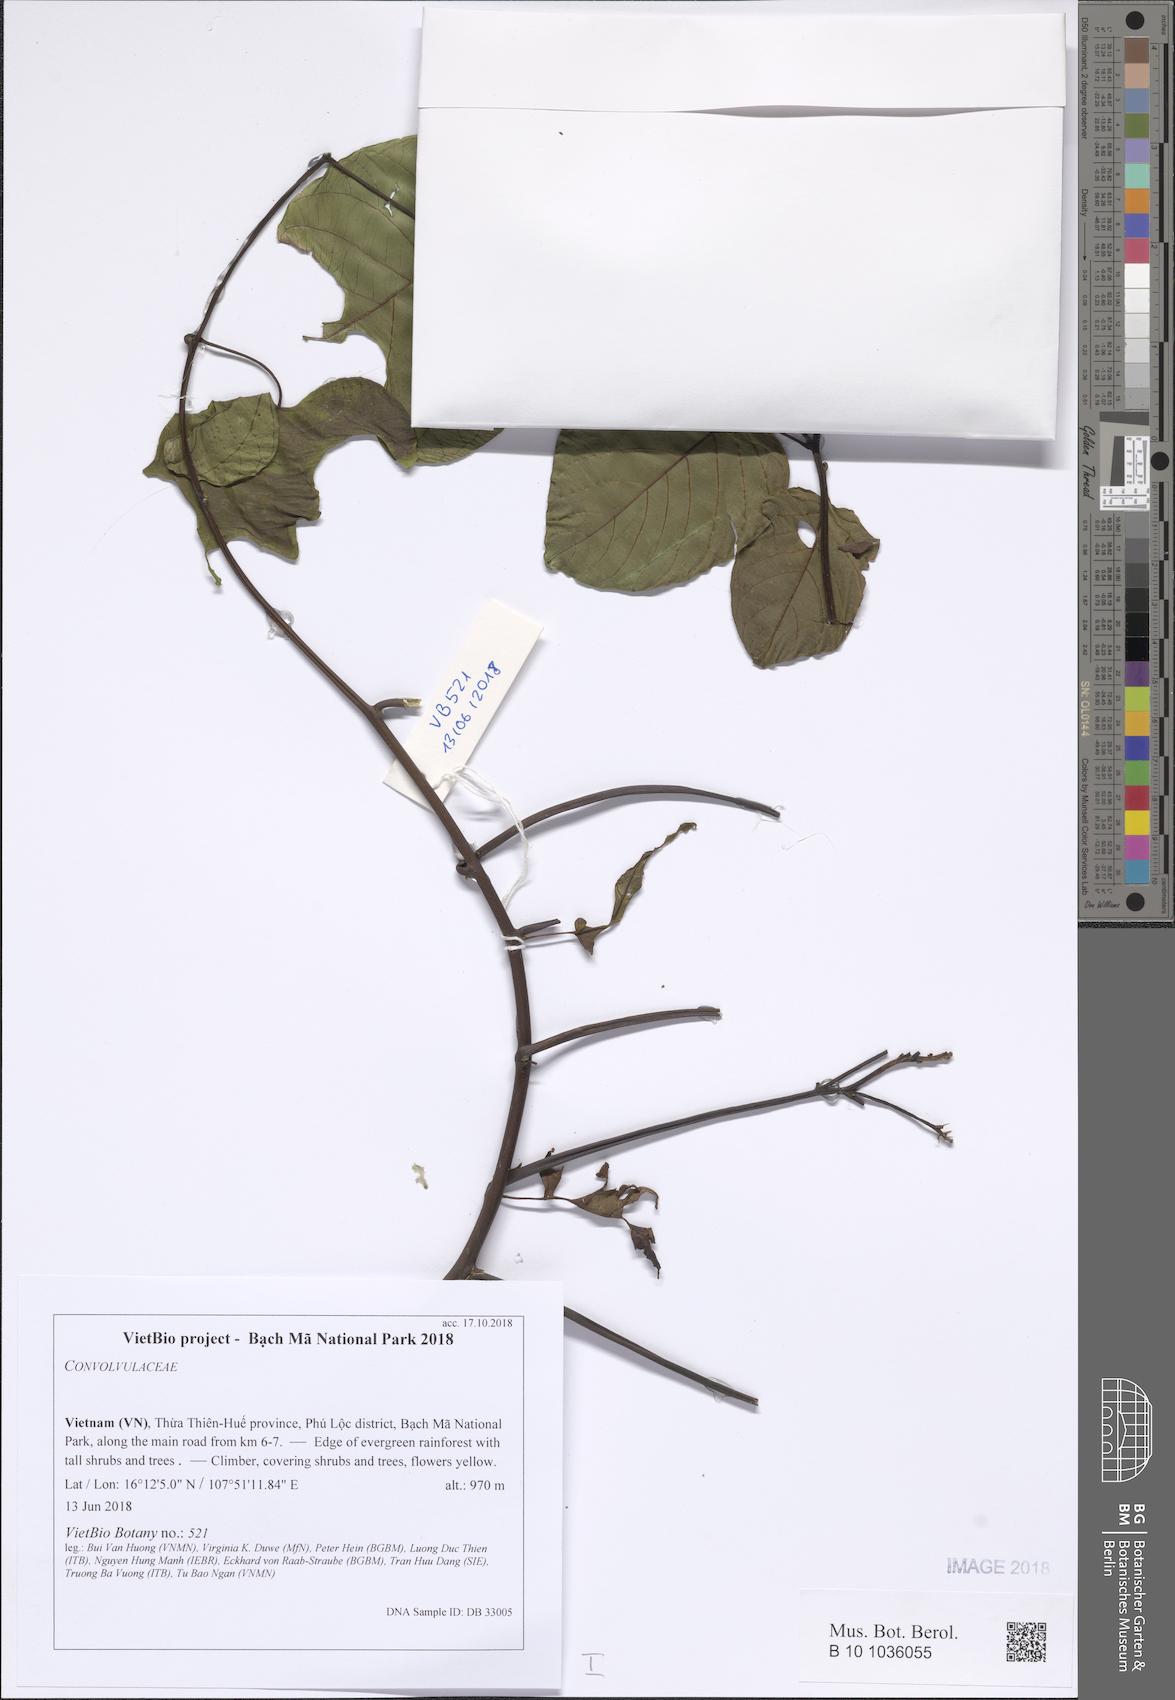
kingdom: Plantae
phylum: Tracheophyta
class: Magnoliopsida
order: Solanales
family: Convolvulaceae
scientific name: Convolvulaceae
